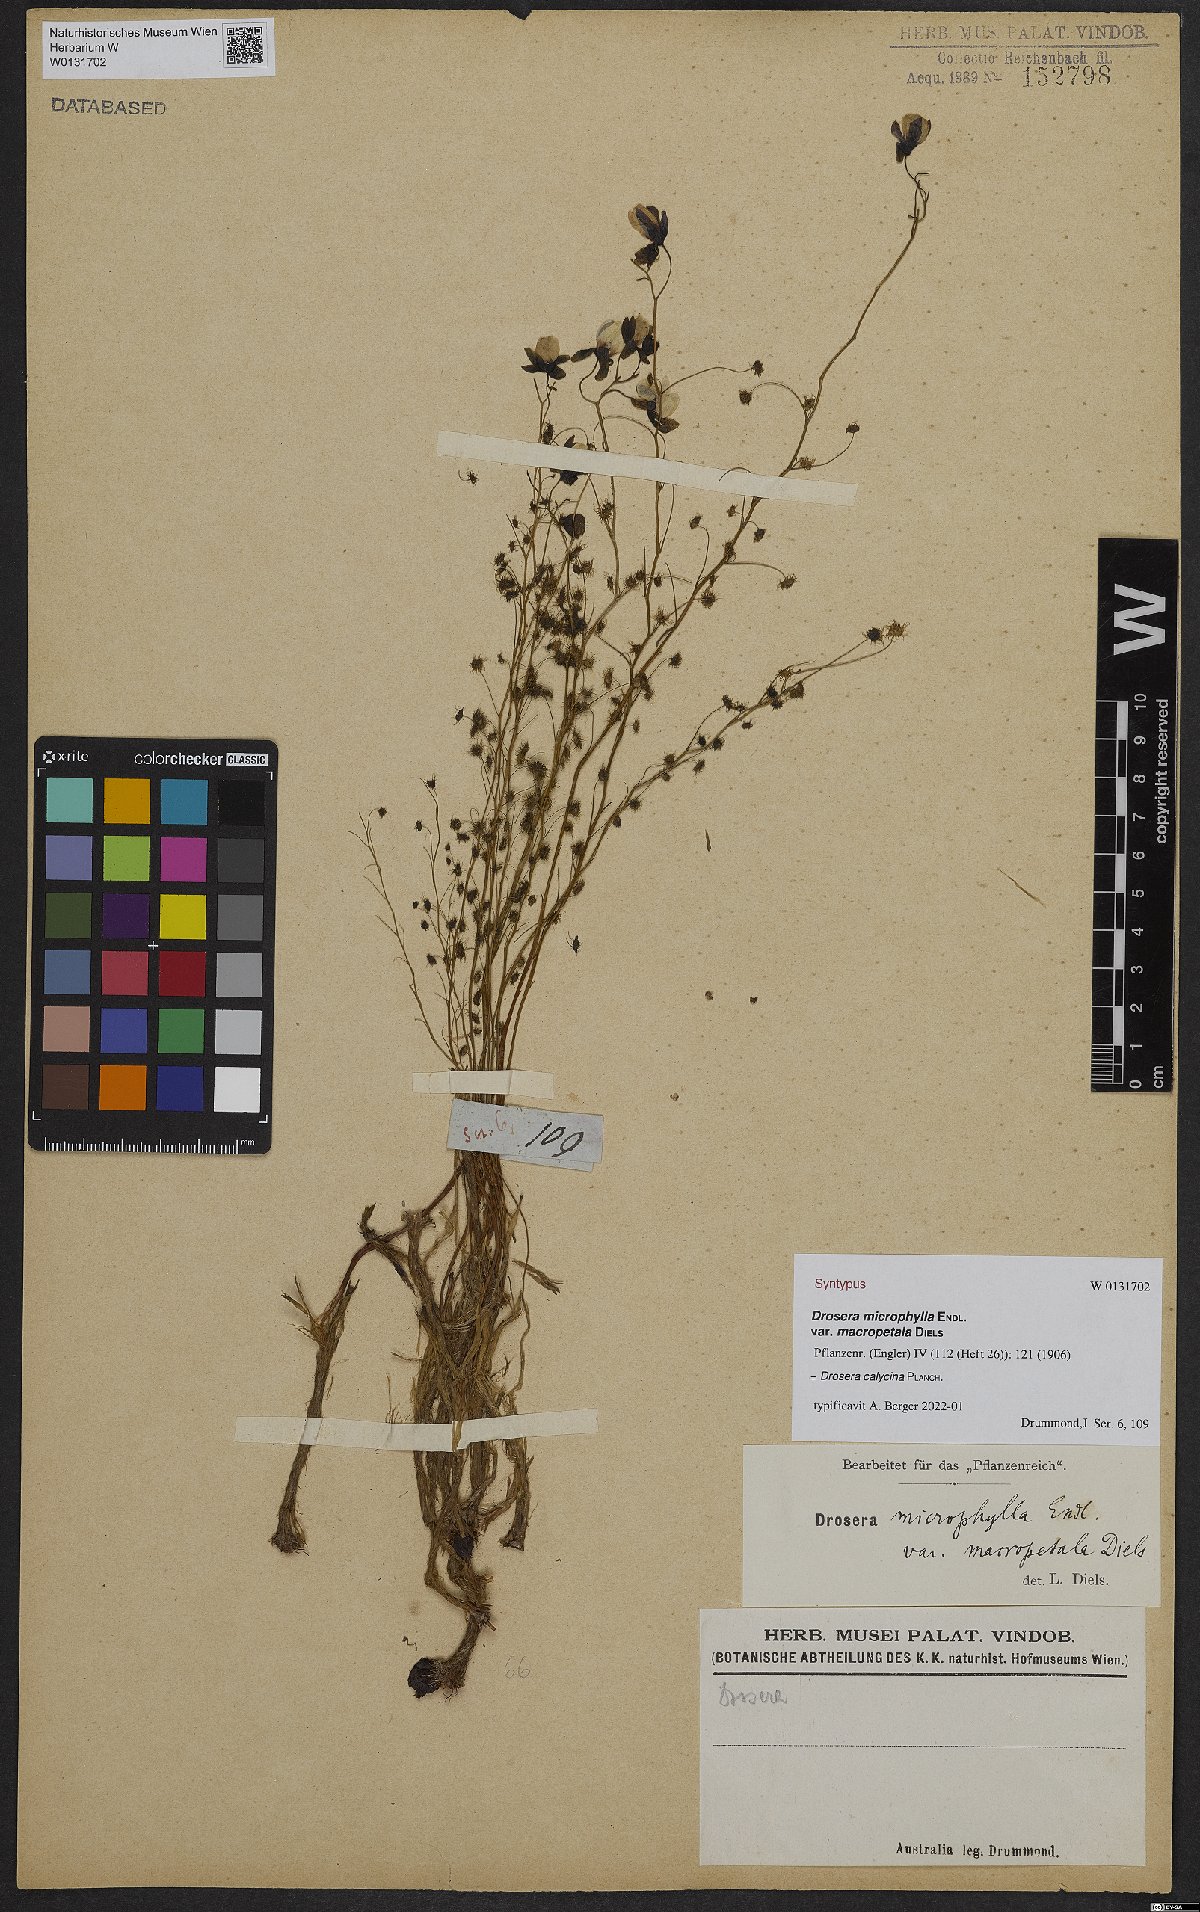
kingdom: Plantae
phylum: Tracheophyta
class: Magnoliopsida
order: Caryophyllales
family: Droseraceae
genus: Drosera
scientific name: Drosera microphylla
